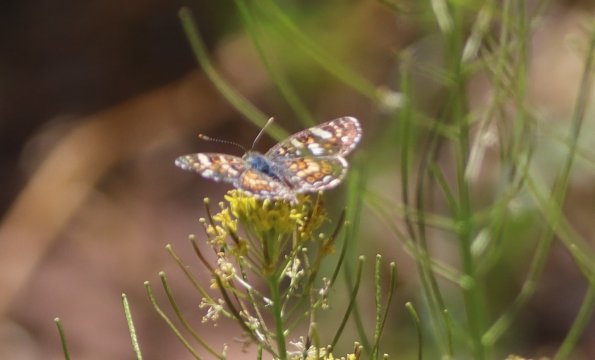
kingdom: Animalia
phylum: Arthropoda
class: Insecta
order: Lepidoptera
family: Nymphalidae
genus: Phyciodes
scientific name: Phyciodes tharos
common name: Field Crescent
